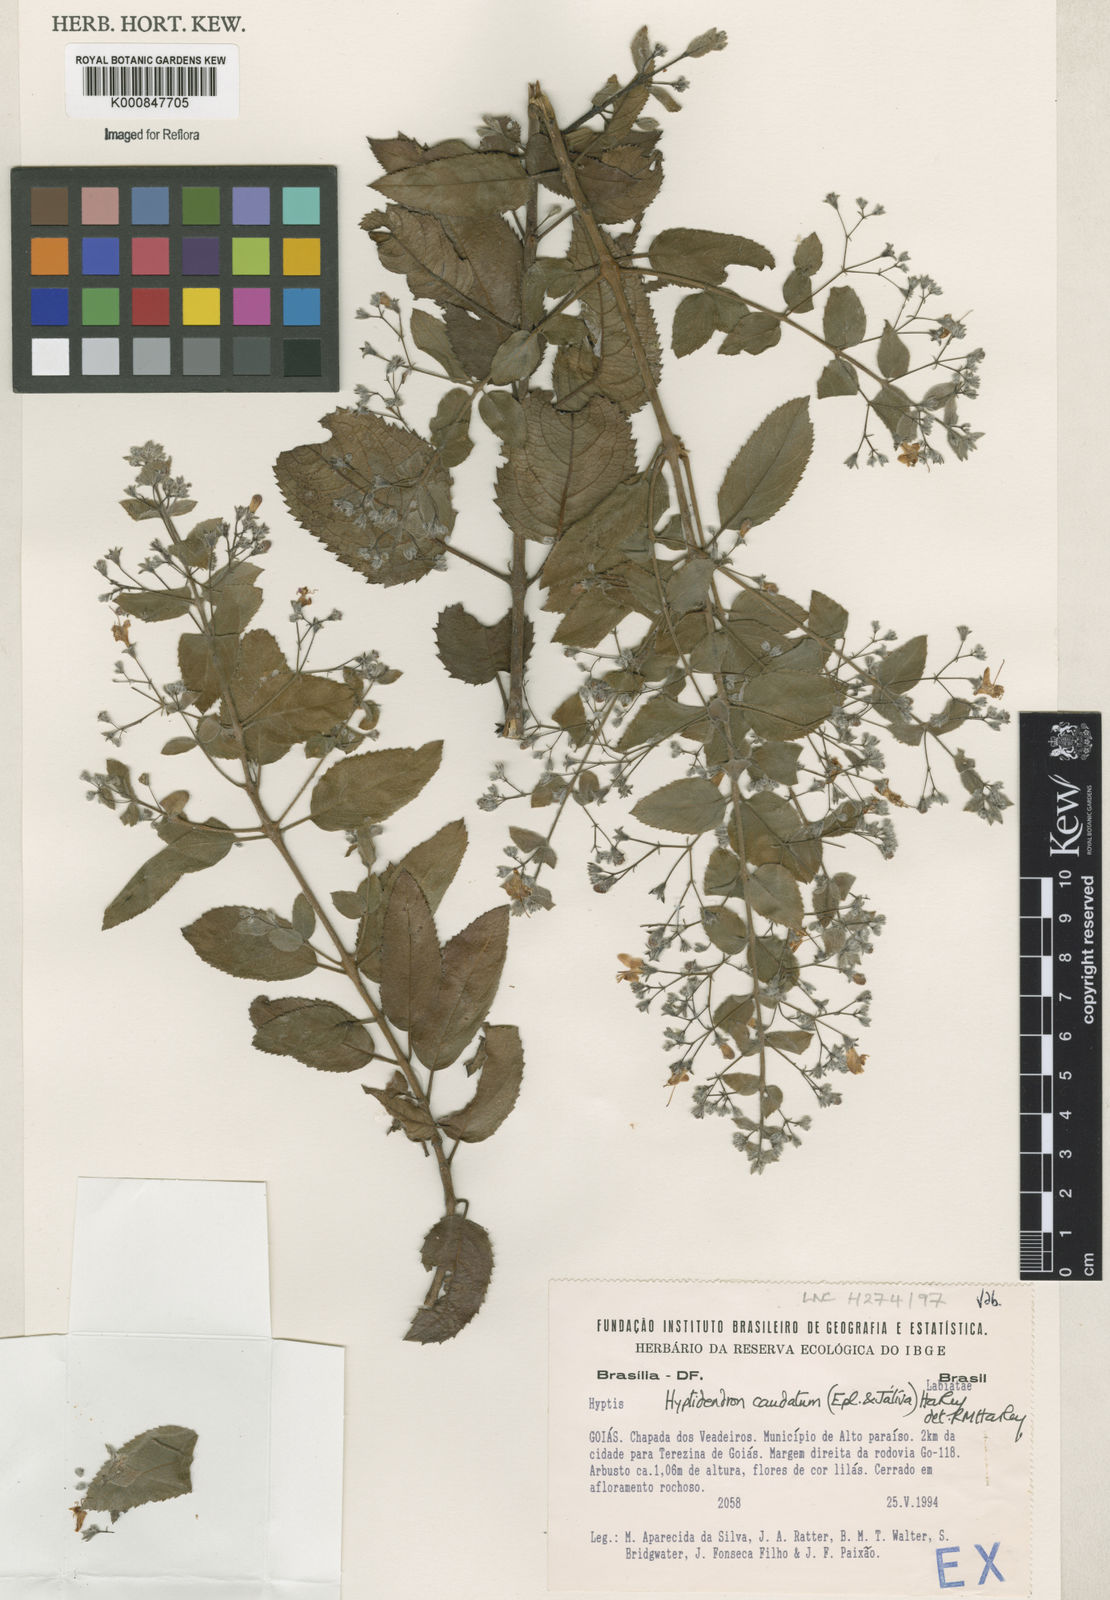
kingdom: Plantae
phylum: Tracheophyta
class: Magnoliopsida
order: Lamiales
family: Lamiaceae
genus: Hyptidendron
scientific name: Hyptidendron
